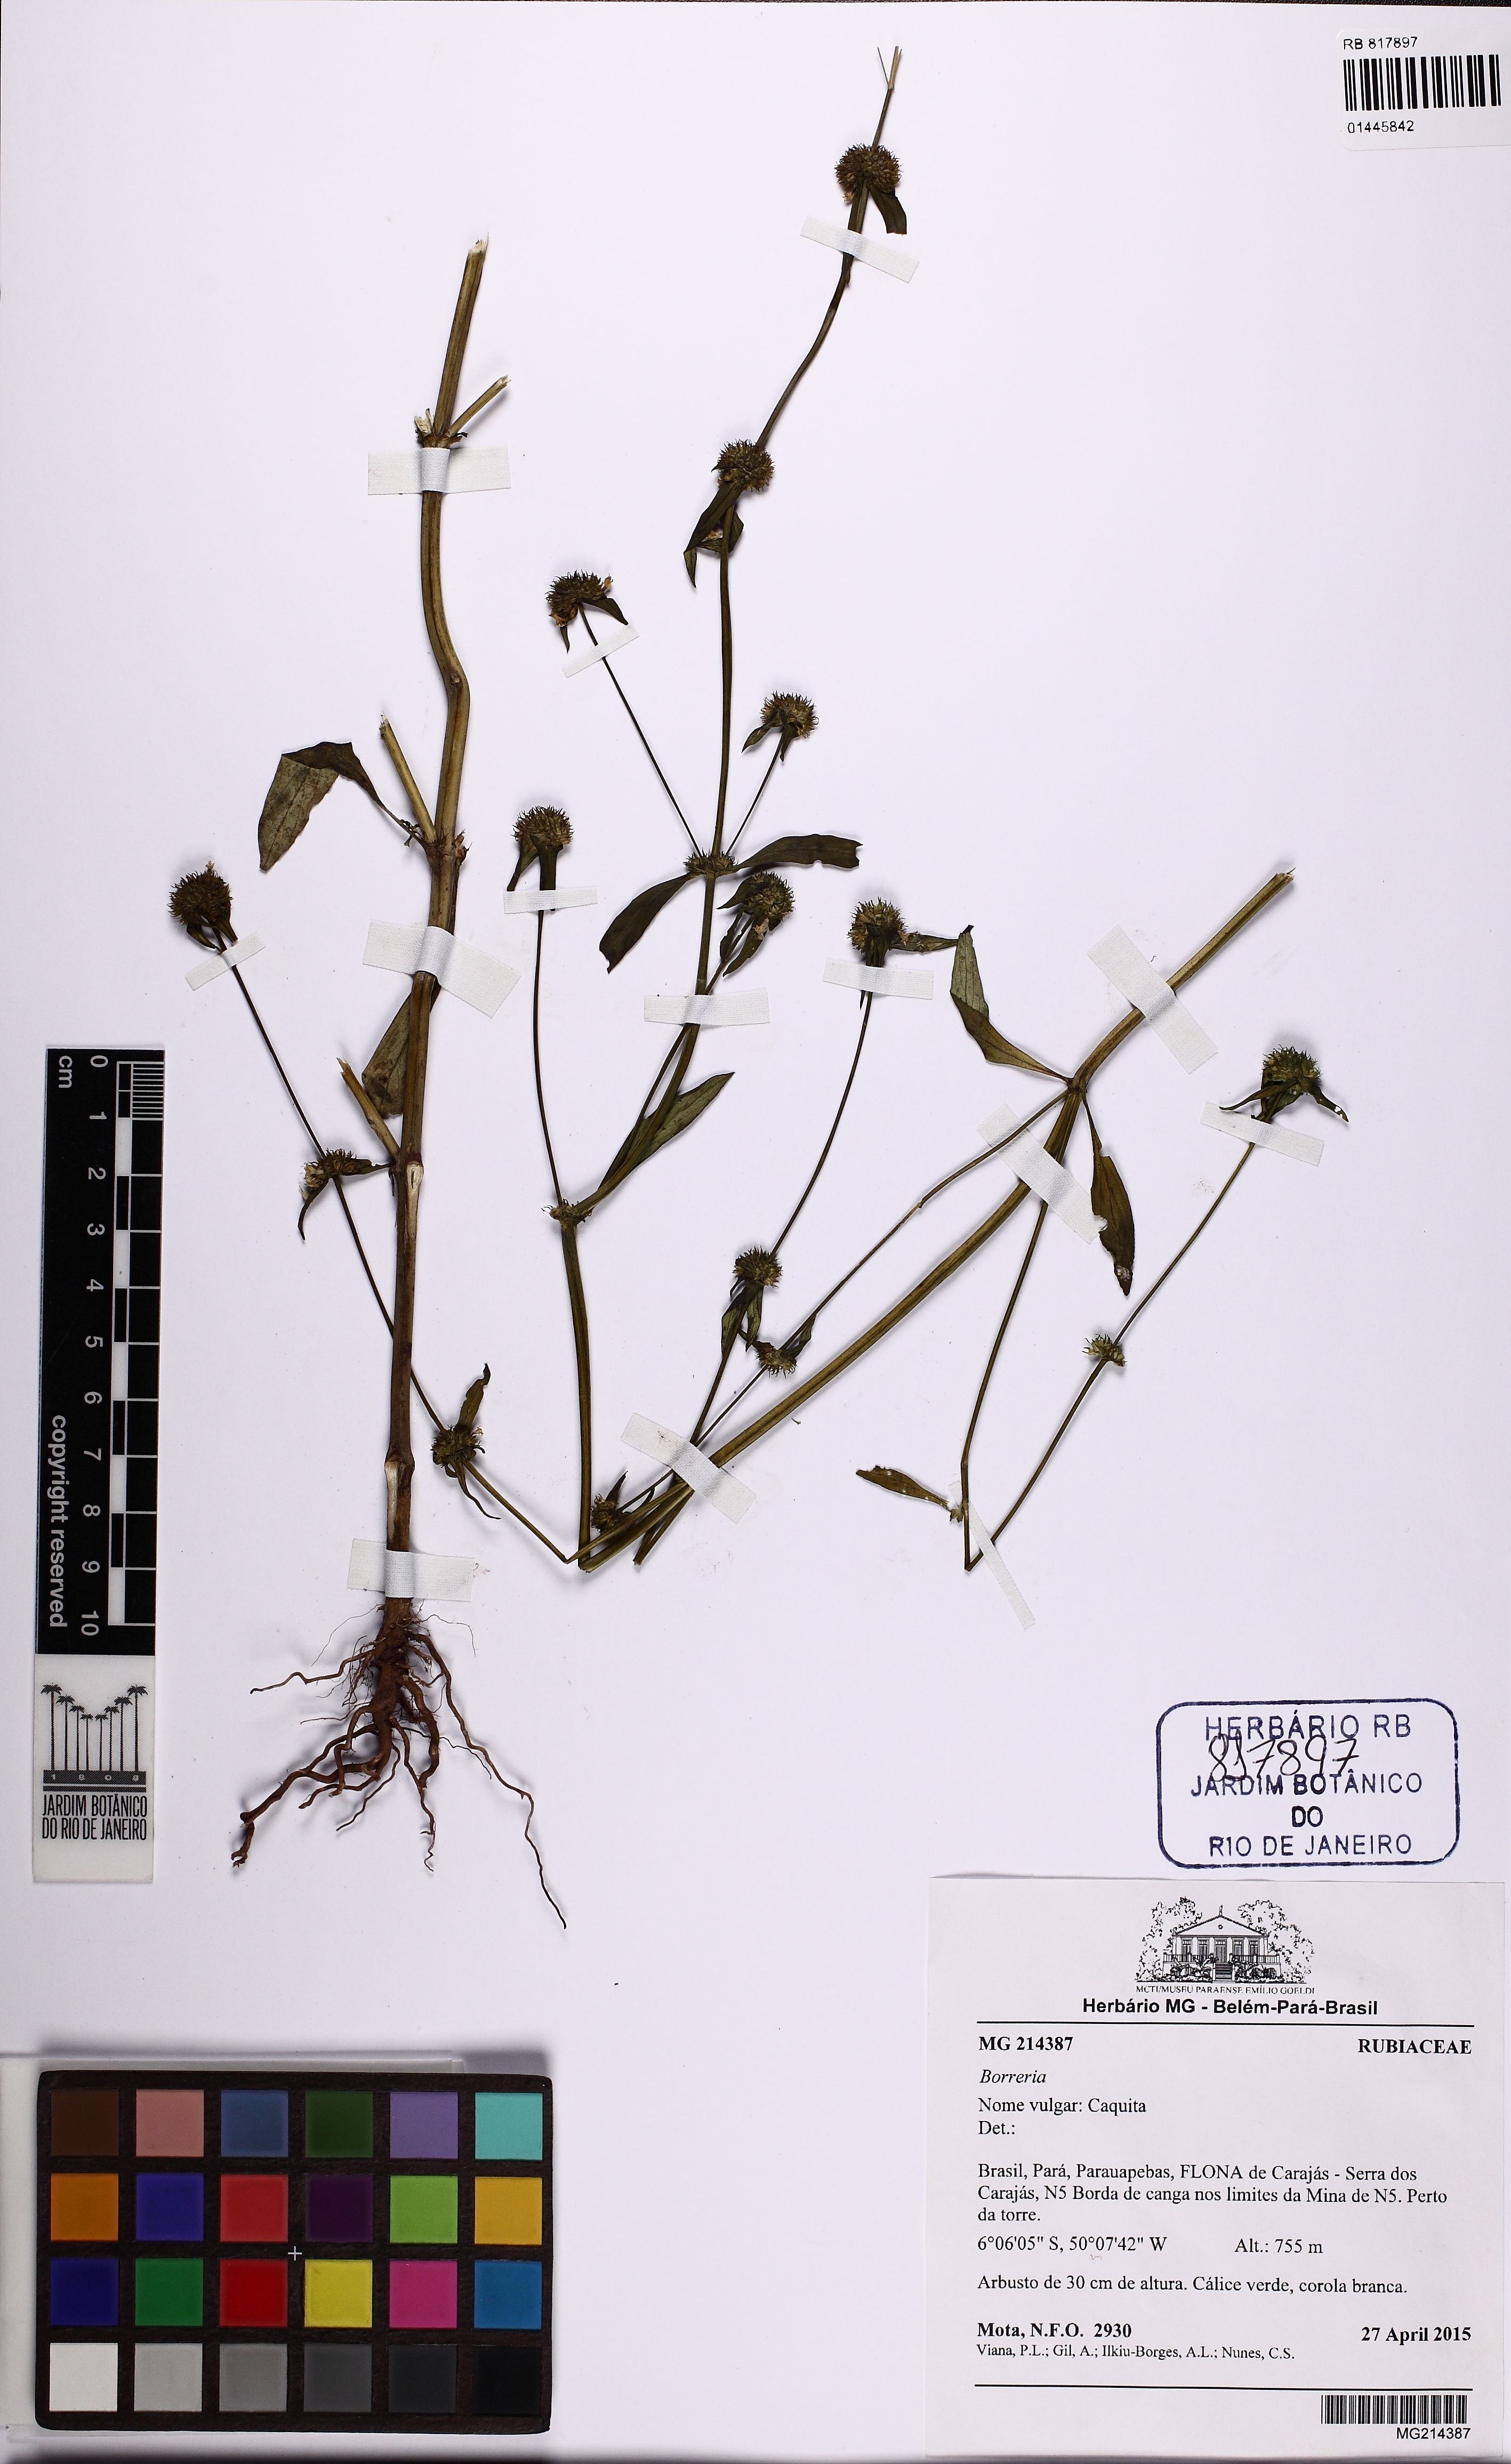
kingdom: Plantae
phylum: Tracheophyta
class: Magnoliopsida
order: Gentianales
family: Rubiaceae
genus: Spermacoce
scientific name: Spermacoce
